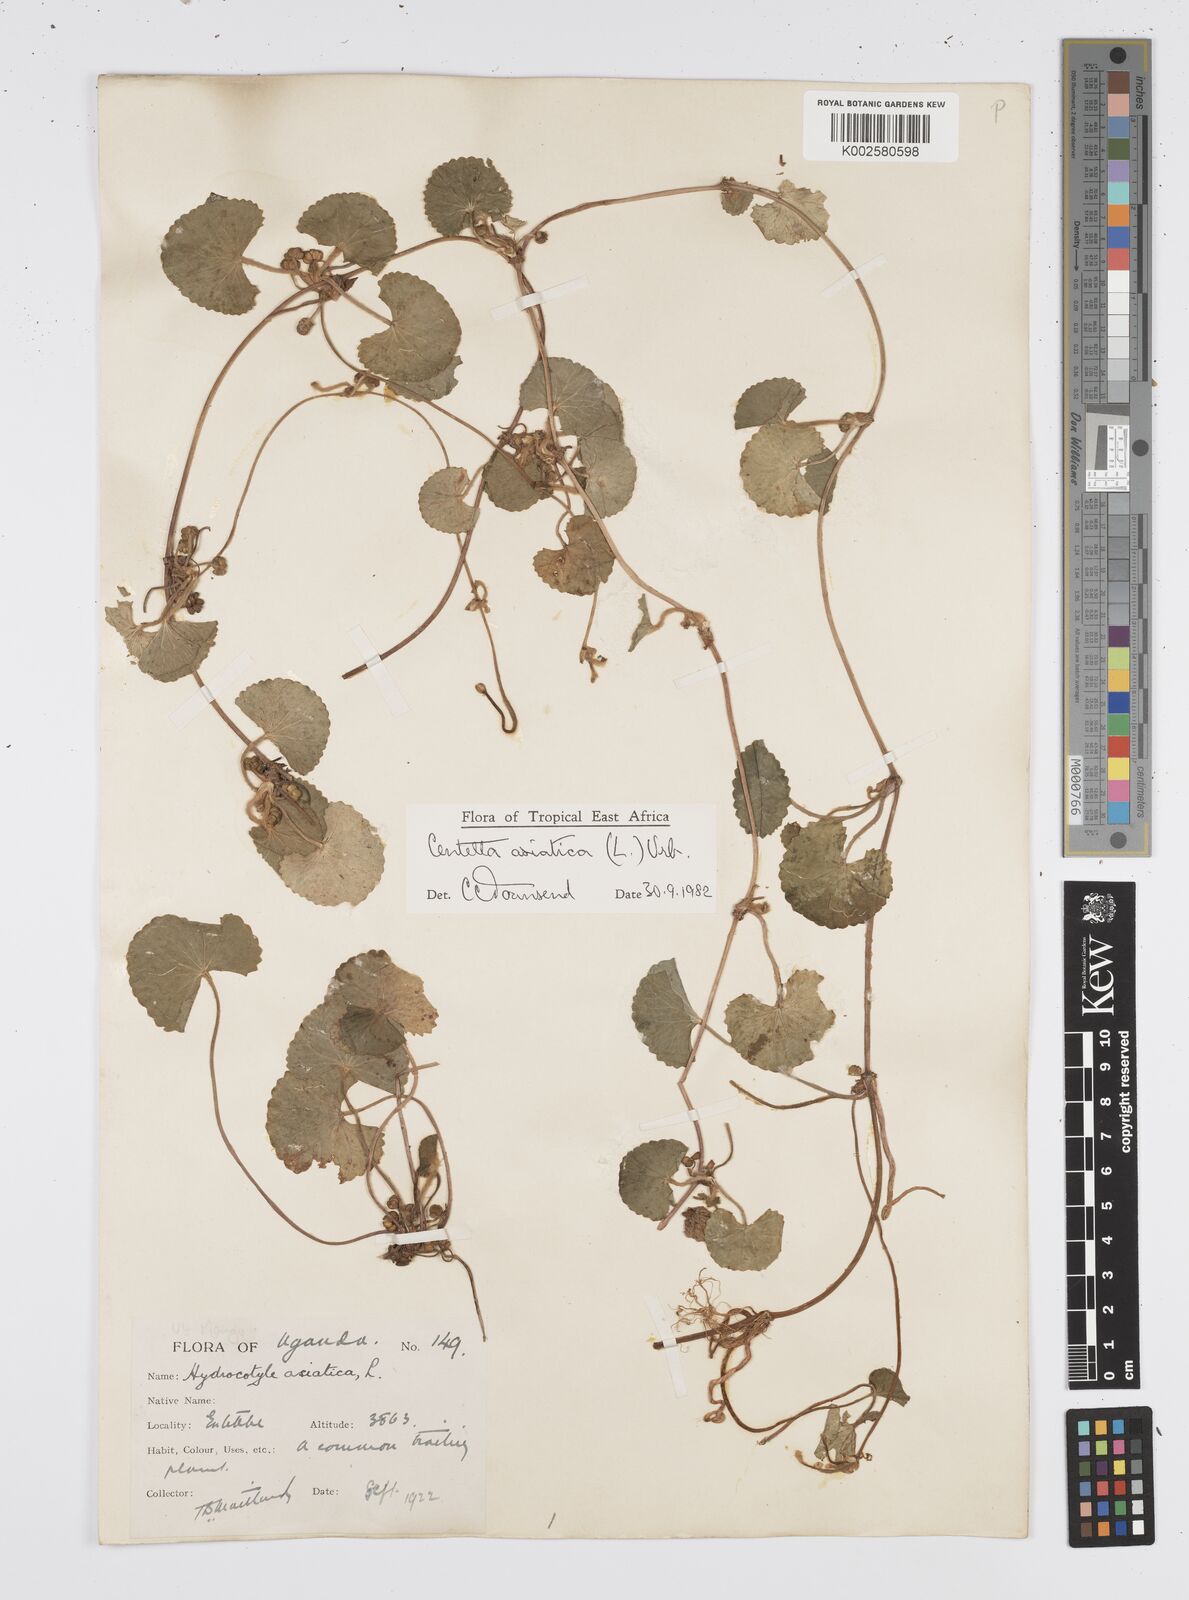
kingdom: Plantae
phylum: Tracheophyta
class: Magnoliopsida
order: Apiales
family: Apiaceae
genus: Centella
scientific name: Centella asiatica
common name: Spadeleaf
